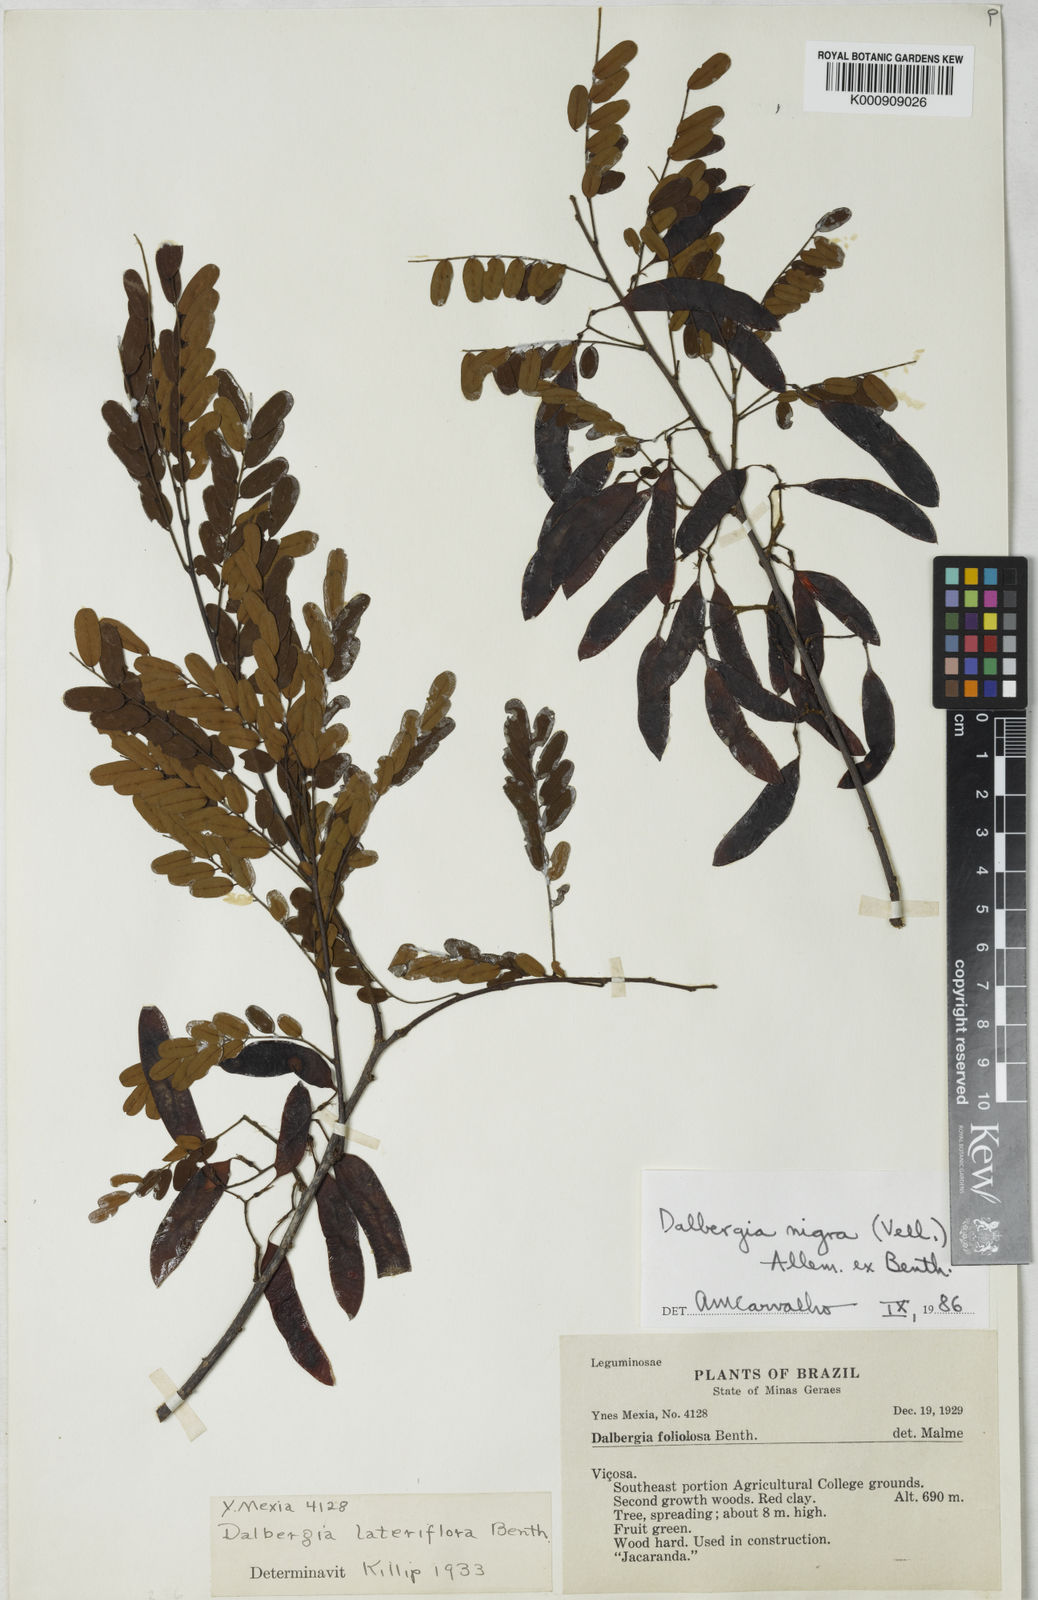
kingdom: Plantae
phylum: Tracheophyta
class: Magnoliopsida
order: Fabales
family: Fabaceae
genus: Dalbergia
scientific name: Dalbergia
